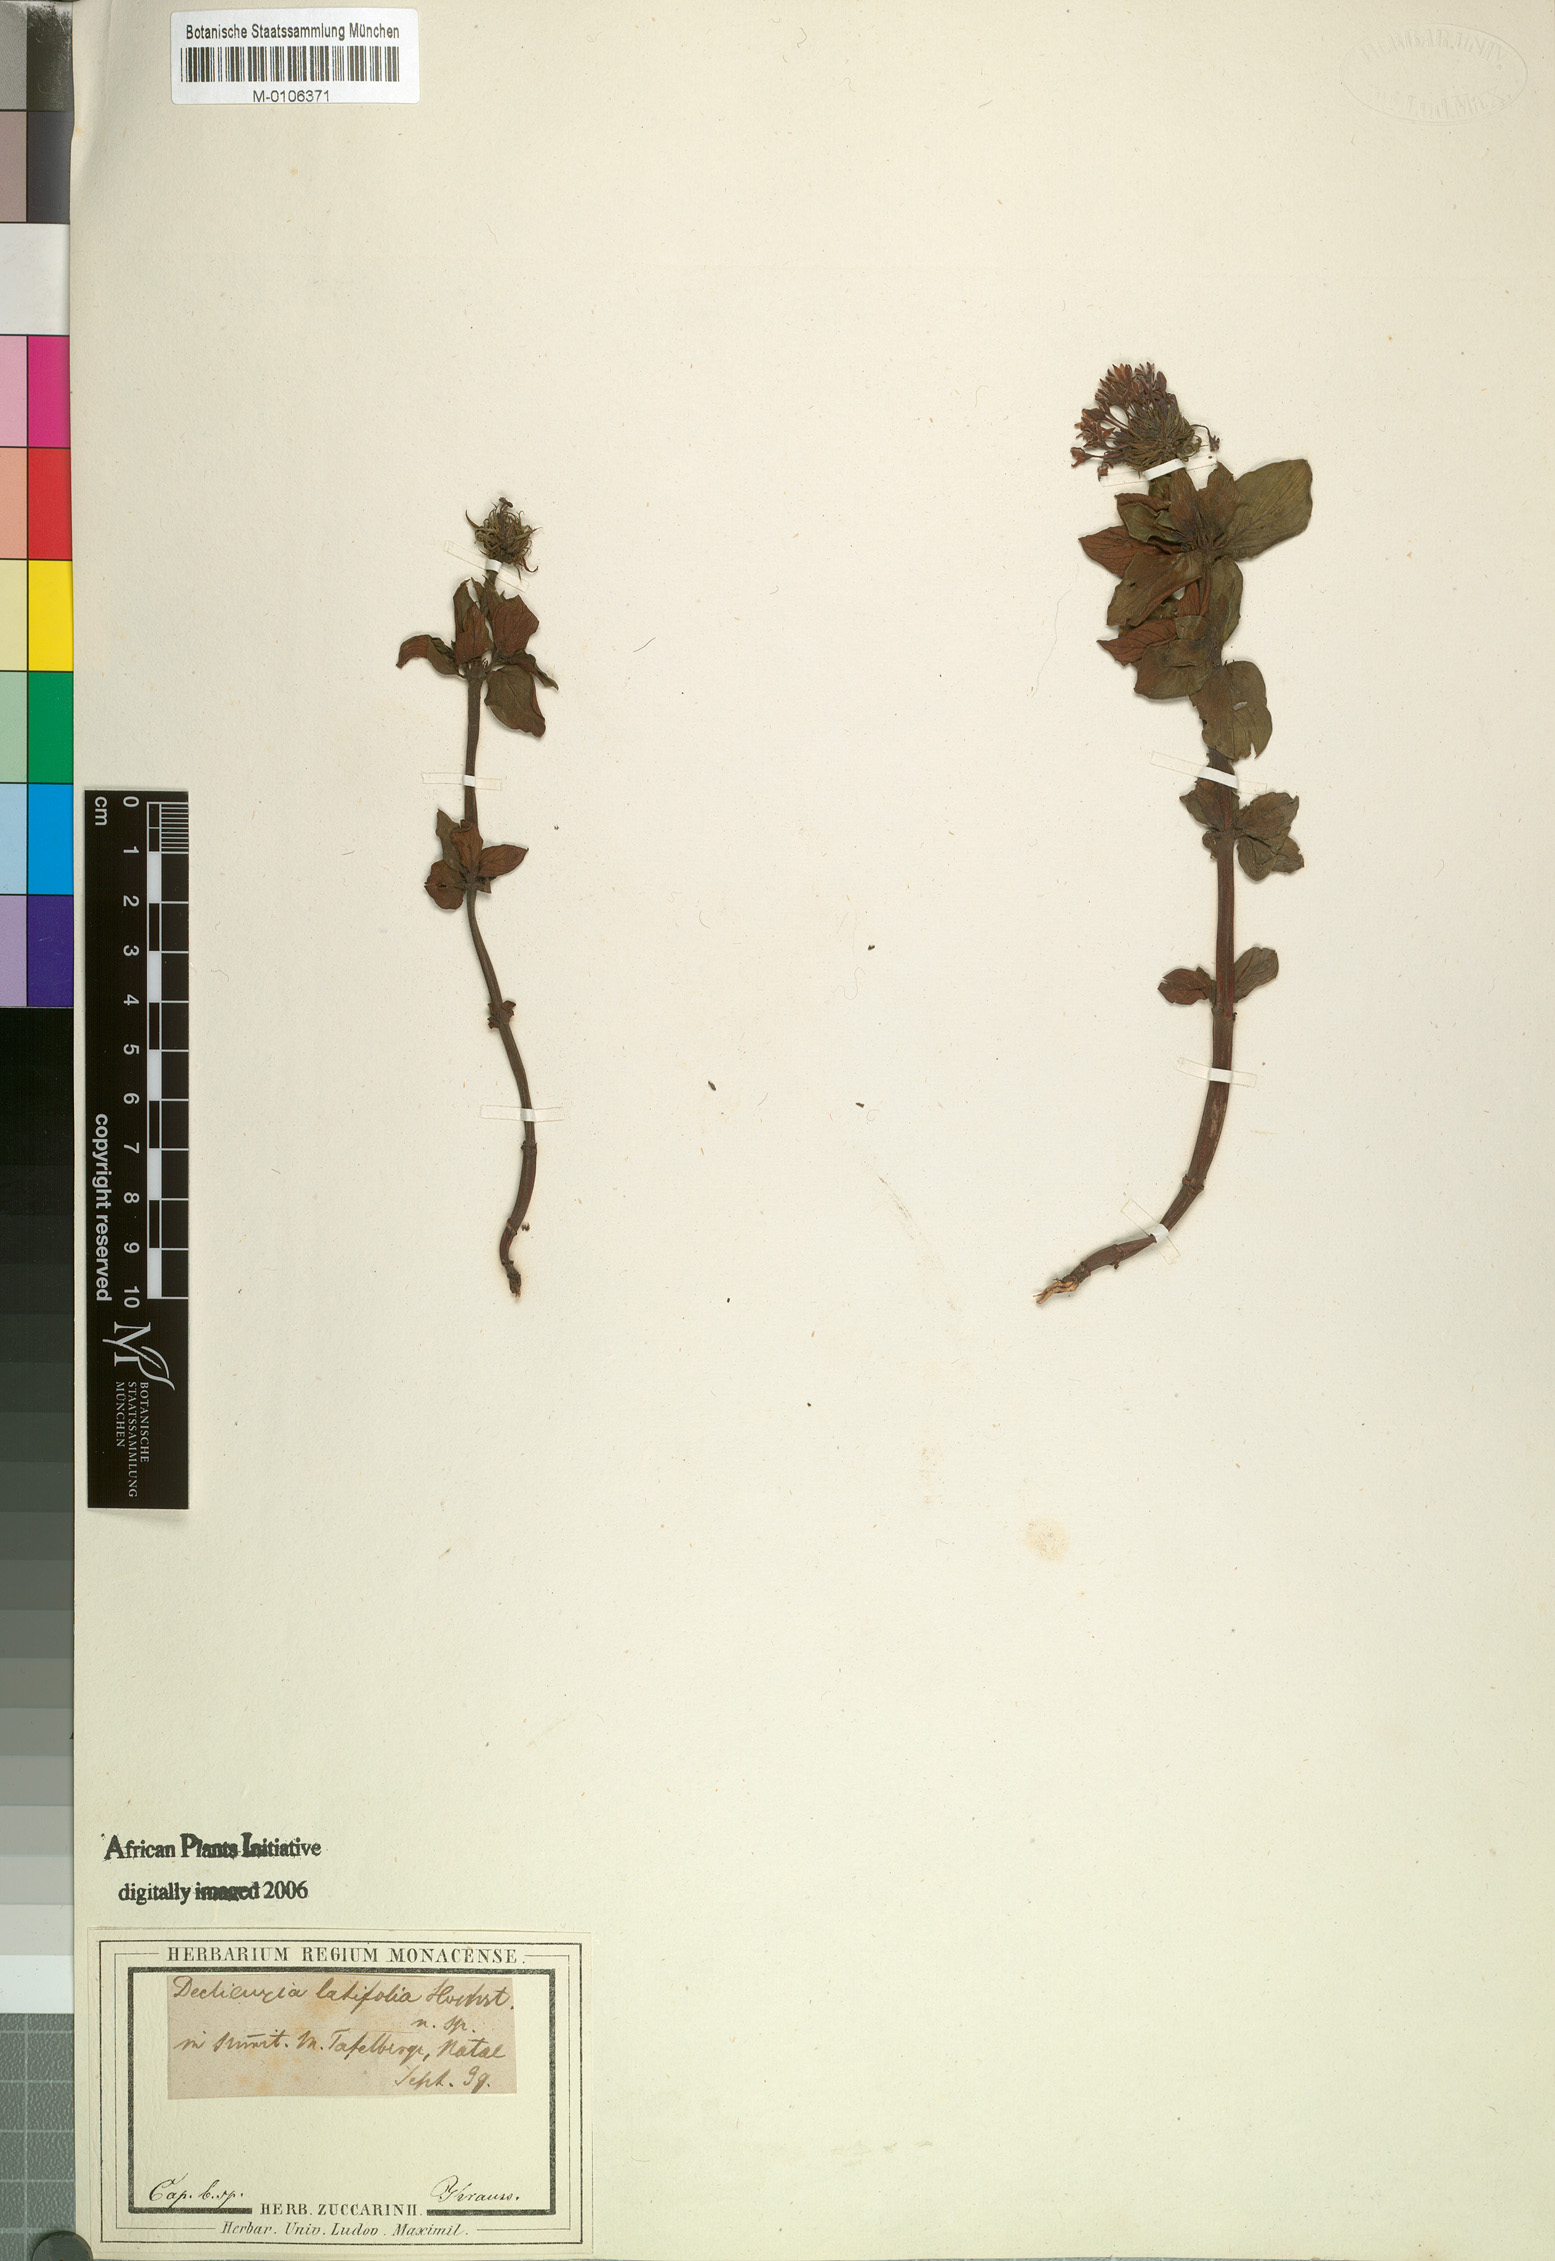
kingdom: Plantae
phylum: Tracheophyta
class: Magnoliopsida
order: Gentianales
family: Rubiaceae
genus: Pentanisia
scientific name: Pentanisia prunelloides
